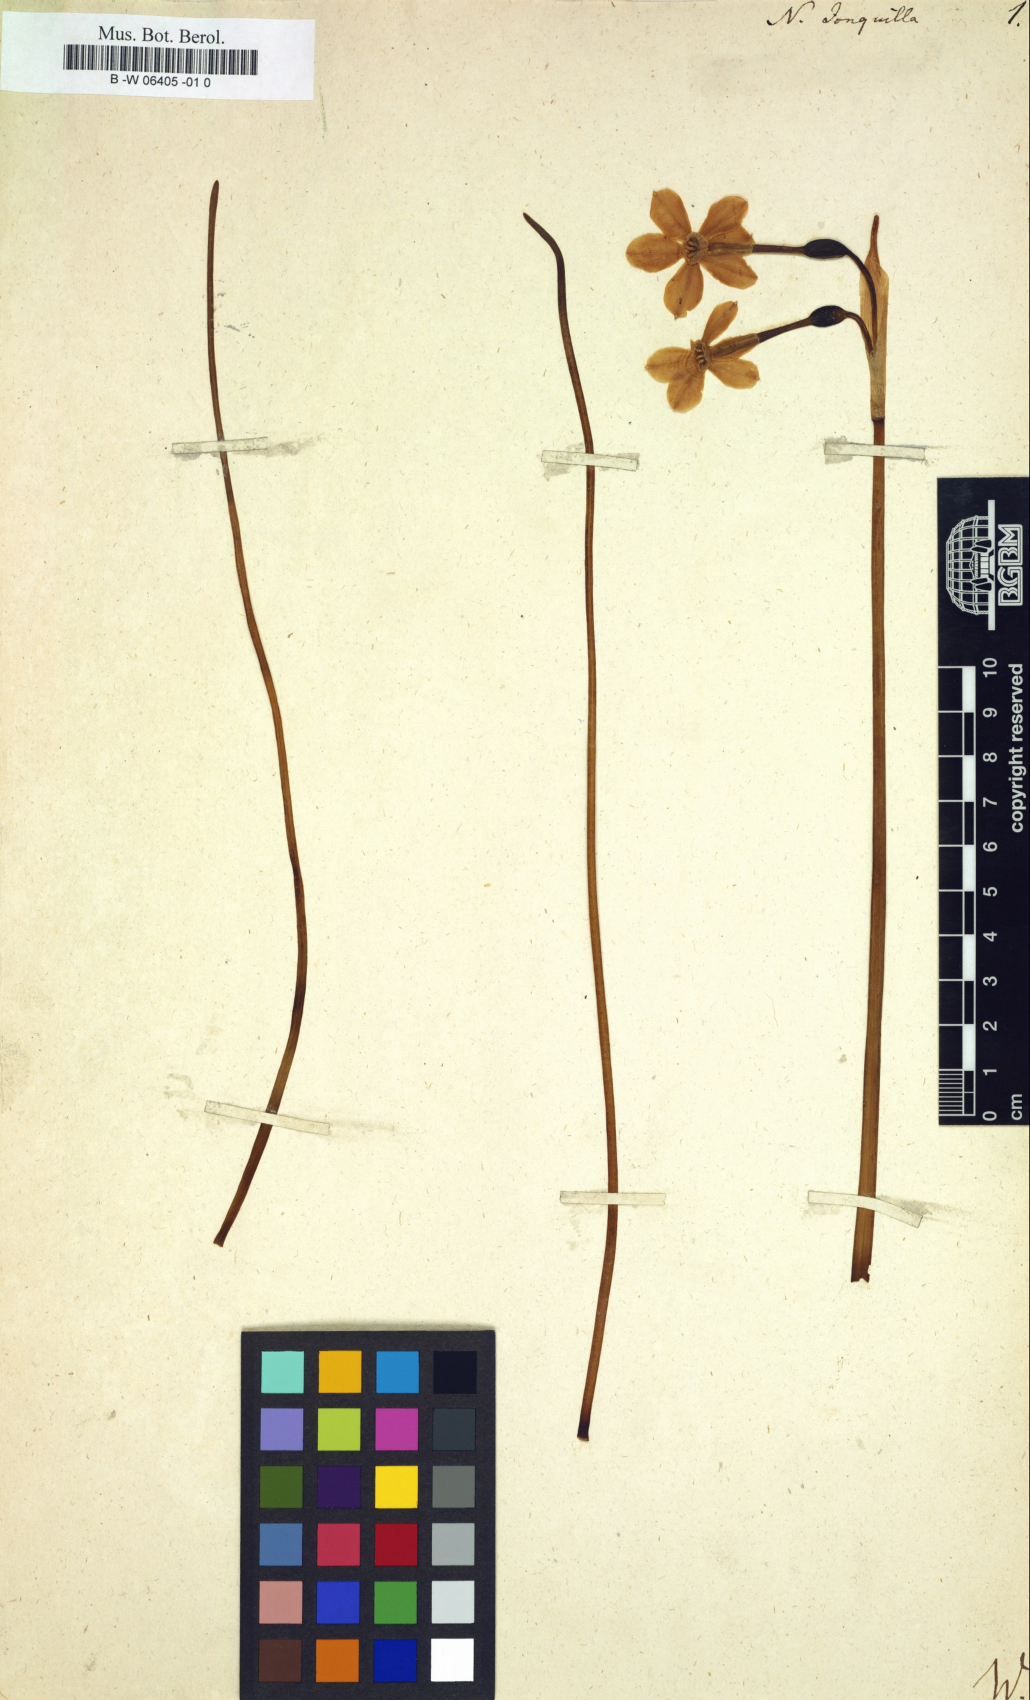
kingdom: Plantae
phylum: Tracheophyta
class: Liliopsida
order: Asparagales
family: Amaryllidaceae
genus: Narcissus
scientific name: Narcissus
